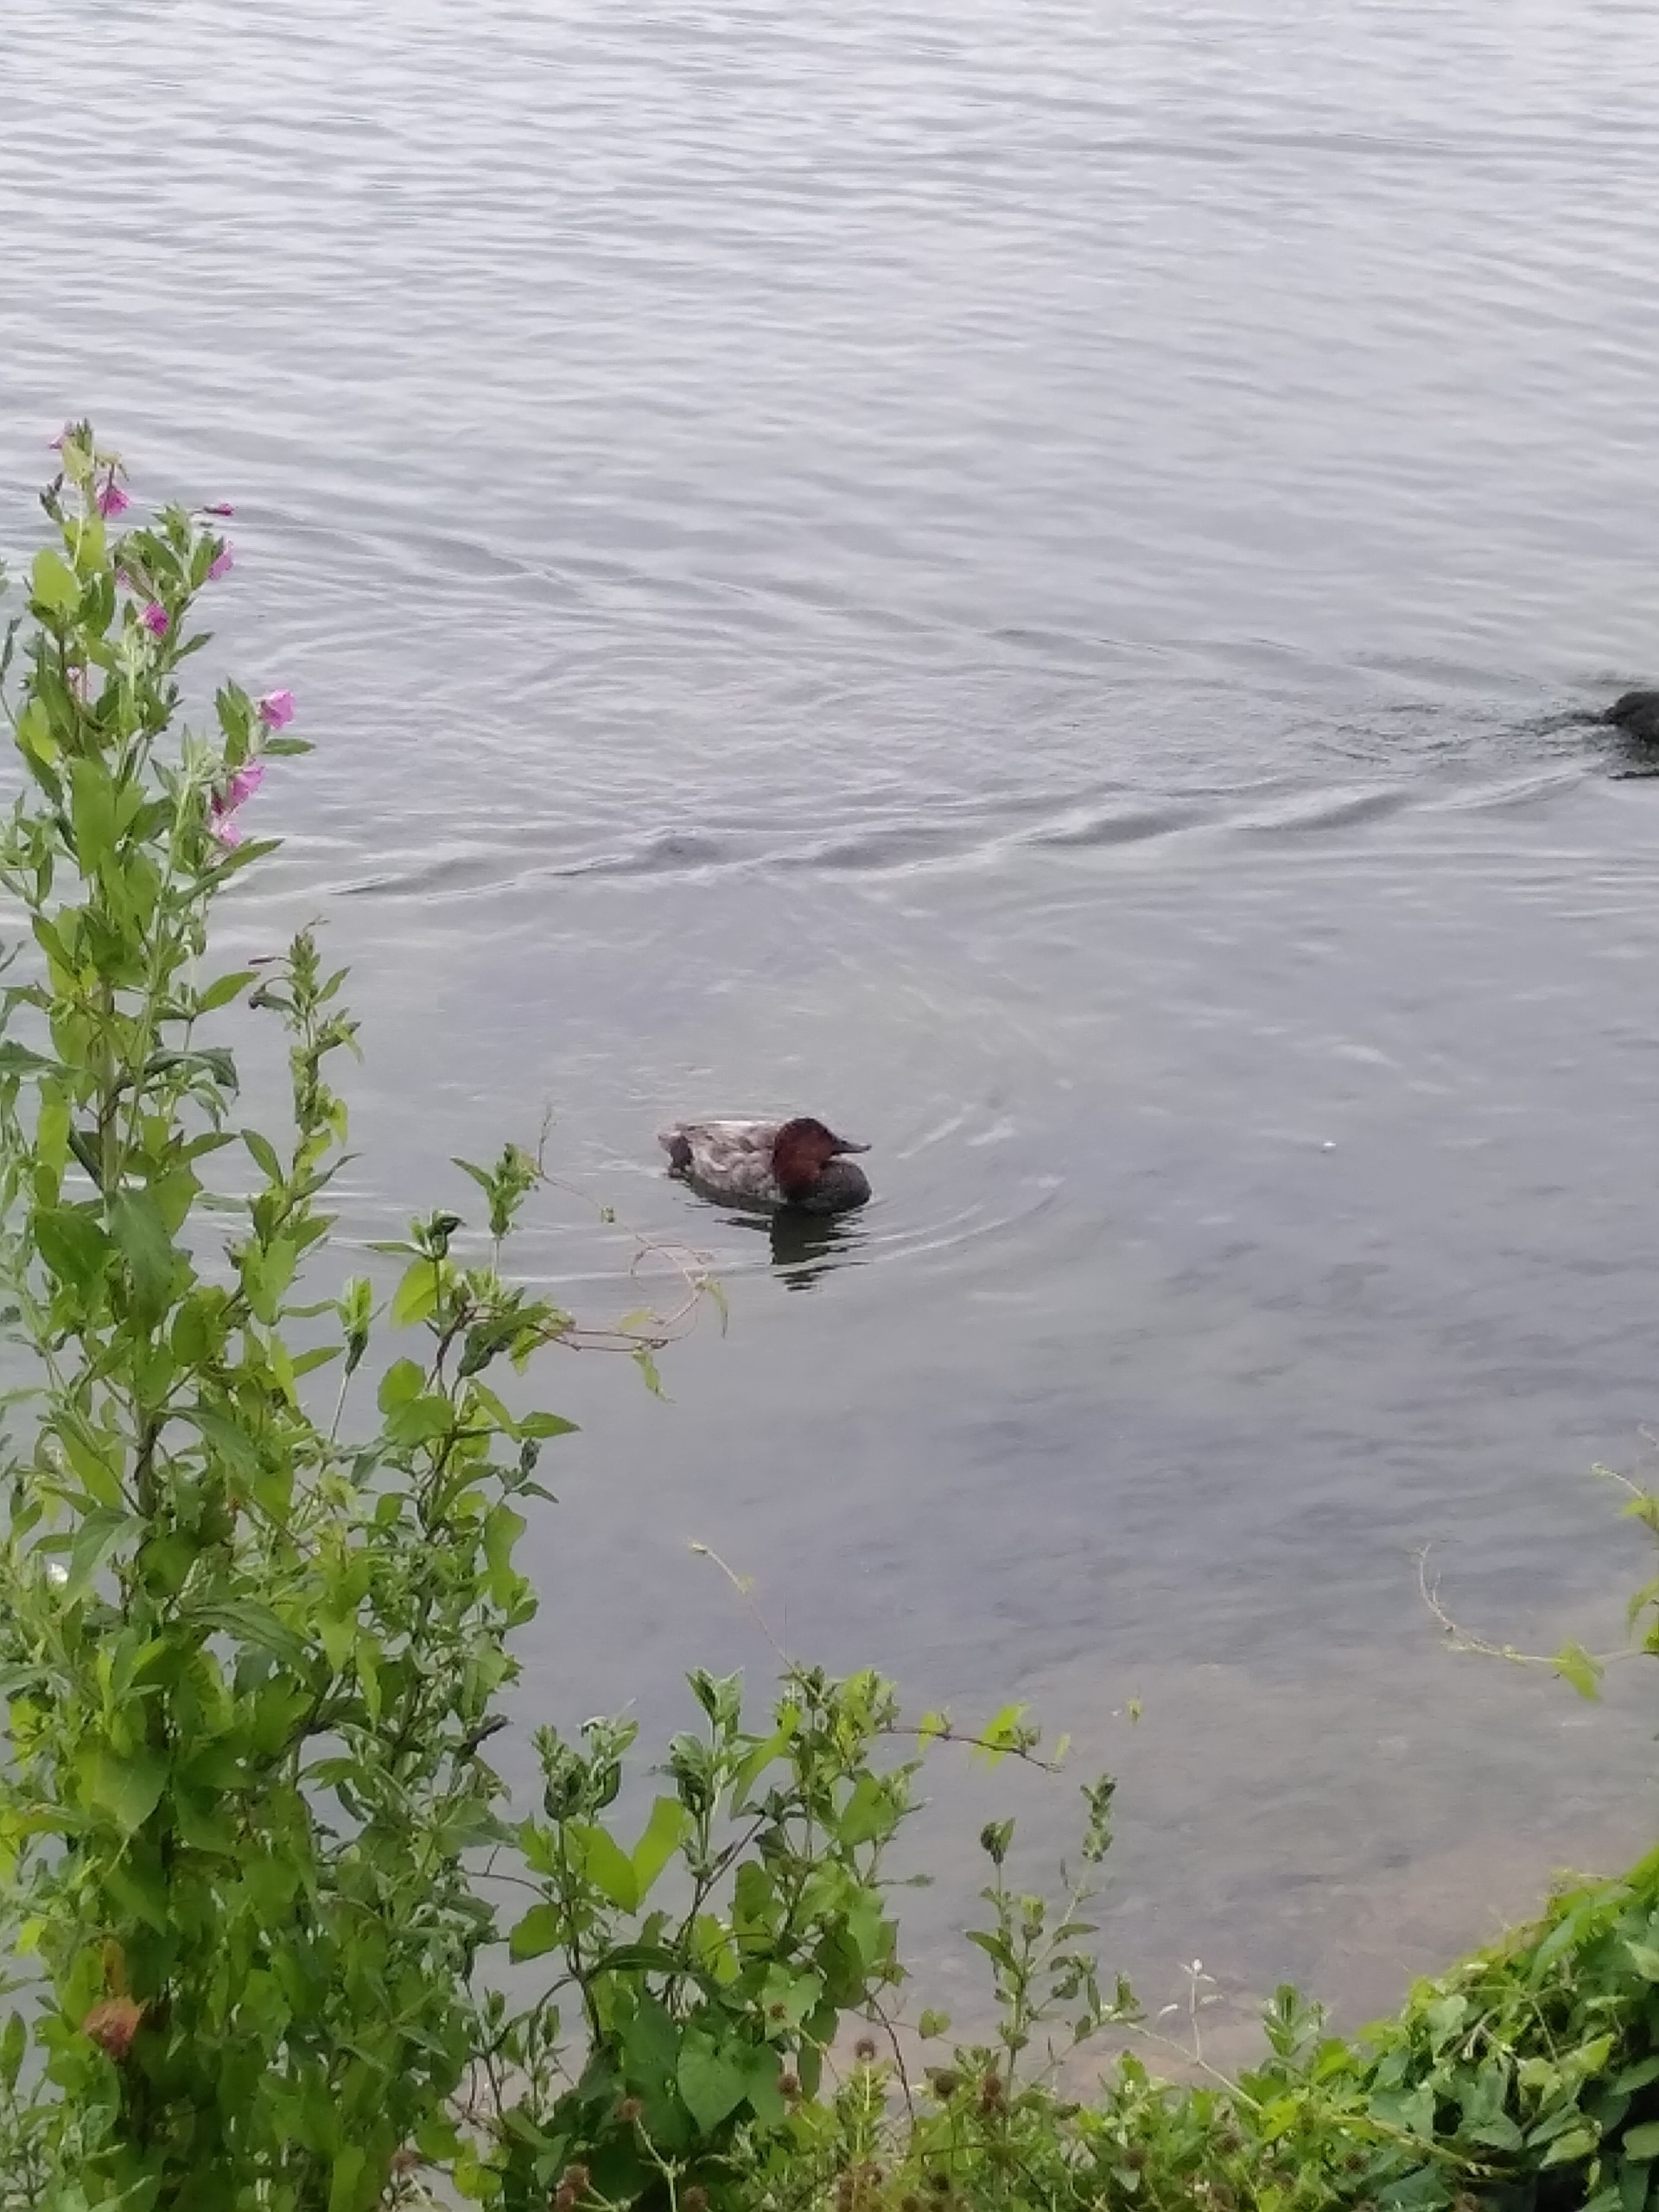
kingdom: Animalia
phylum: Chordata
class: Aves
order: Anseriformes
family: Anatidae
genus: Aythya
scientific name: Aythya ferina
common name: Taffeland
